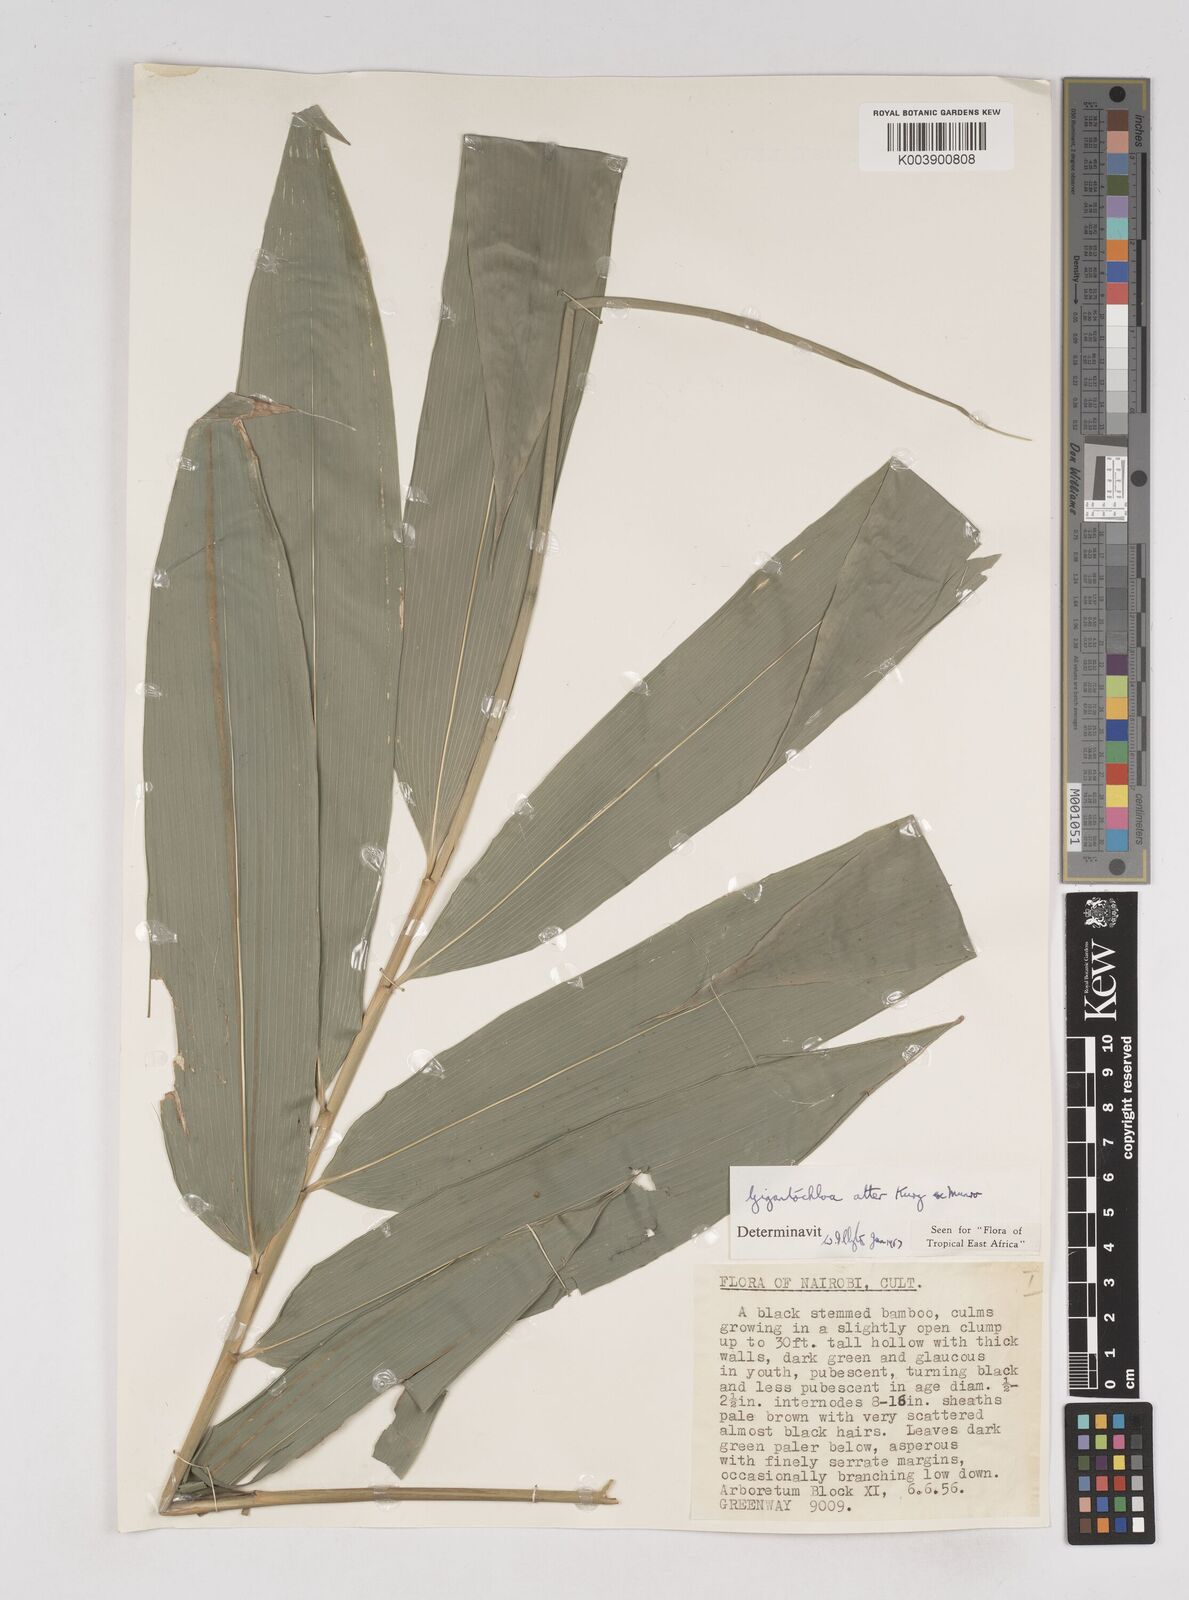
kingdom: Plantae
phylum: Tracheophyta
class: Liliopsida
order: Poales
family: Poaceae
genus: Gigantochloa
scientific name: Gigantochloa atter
